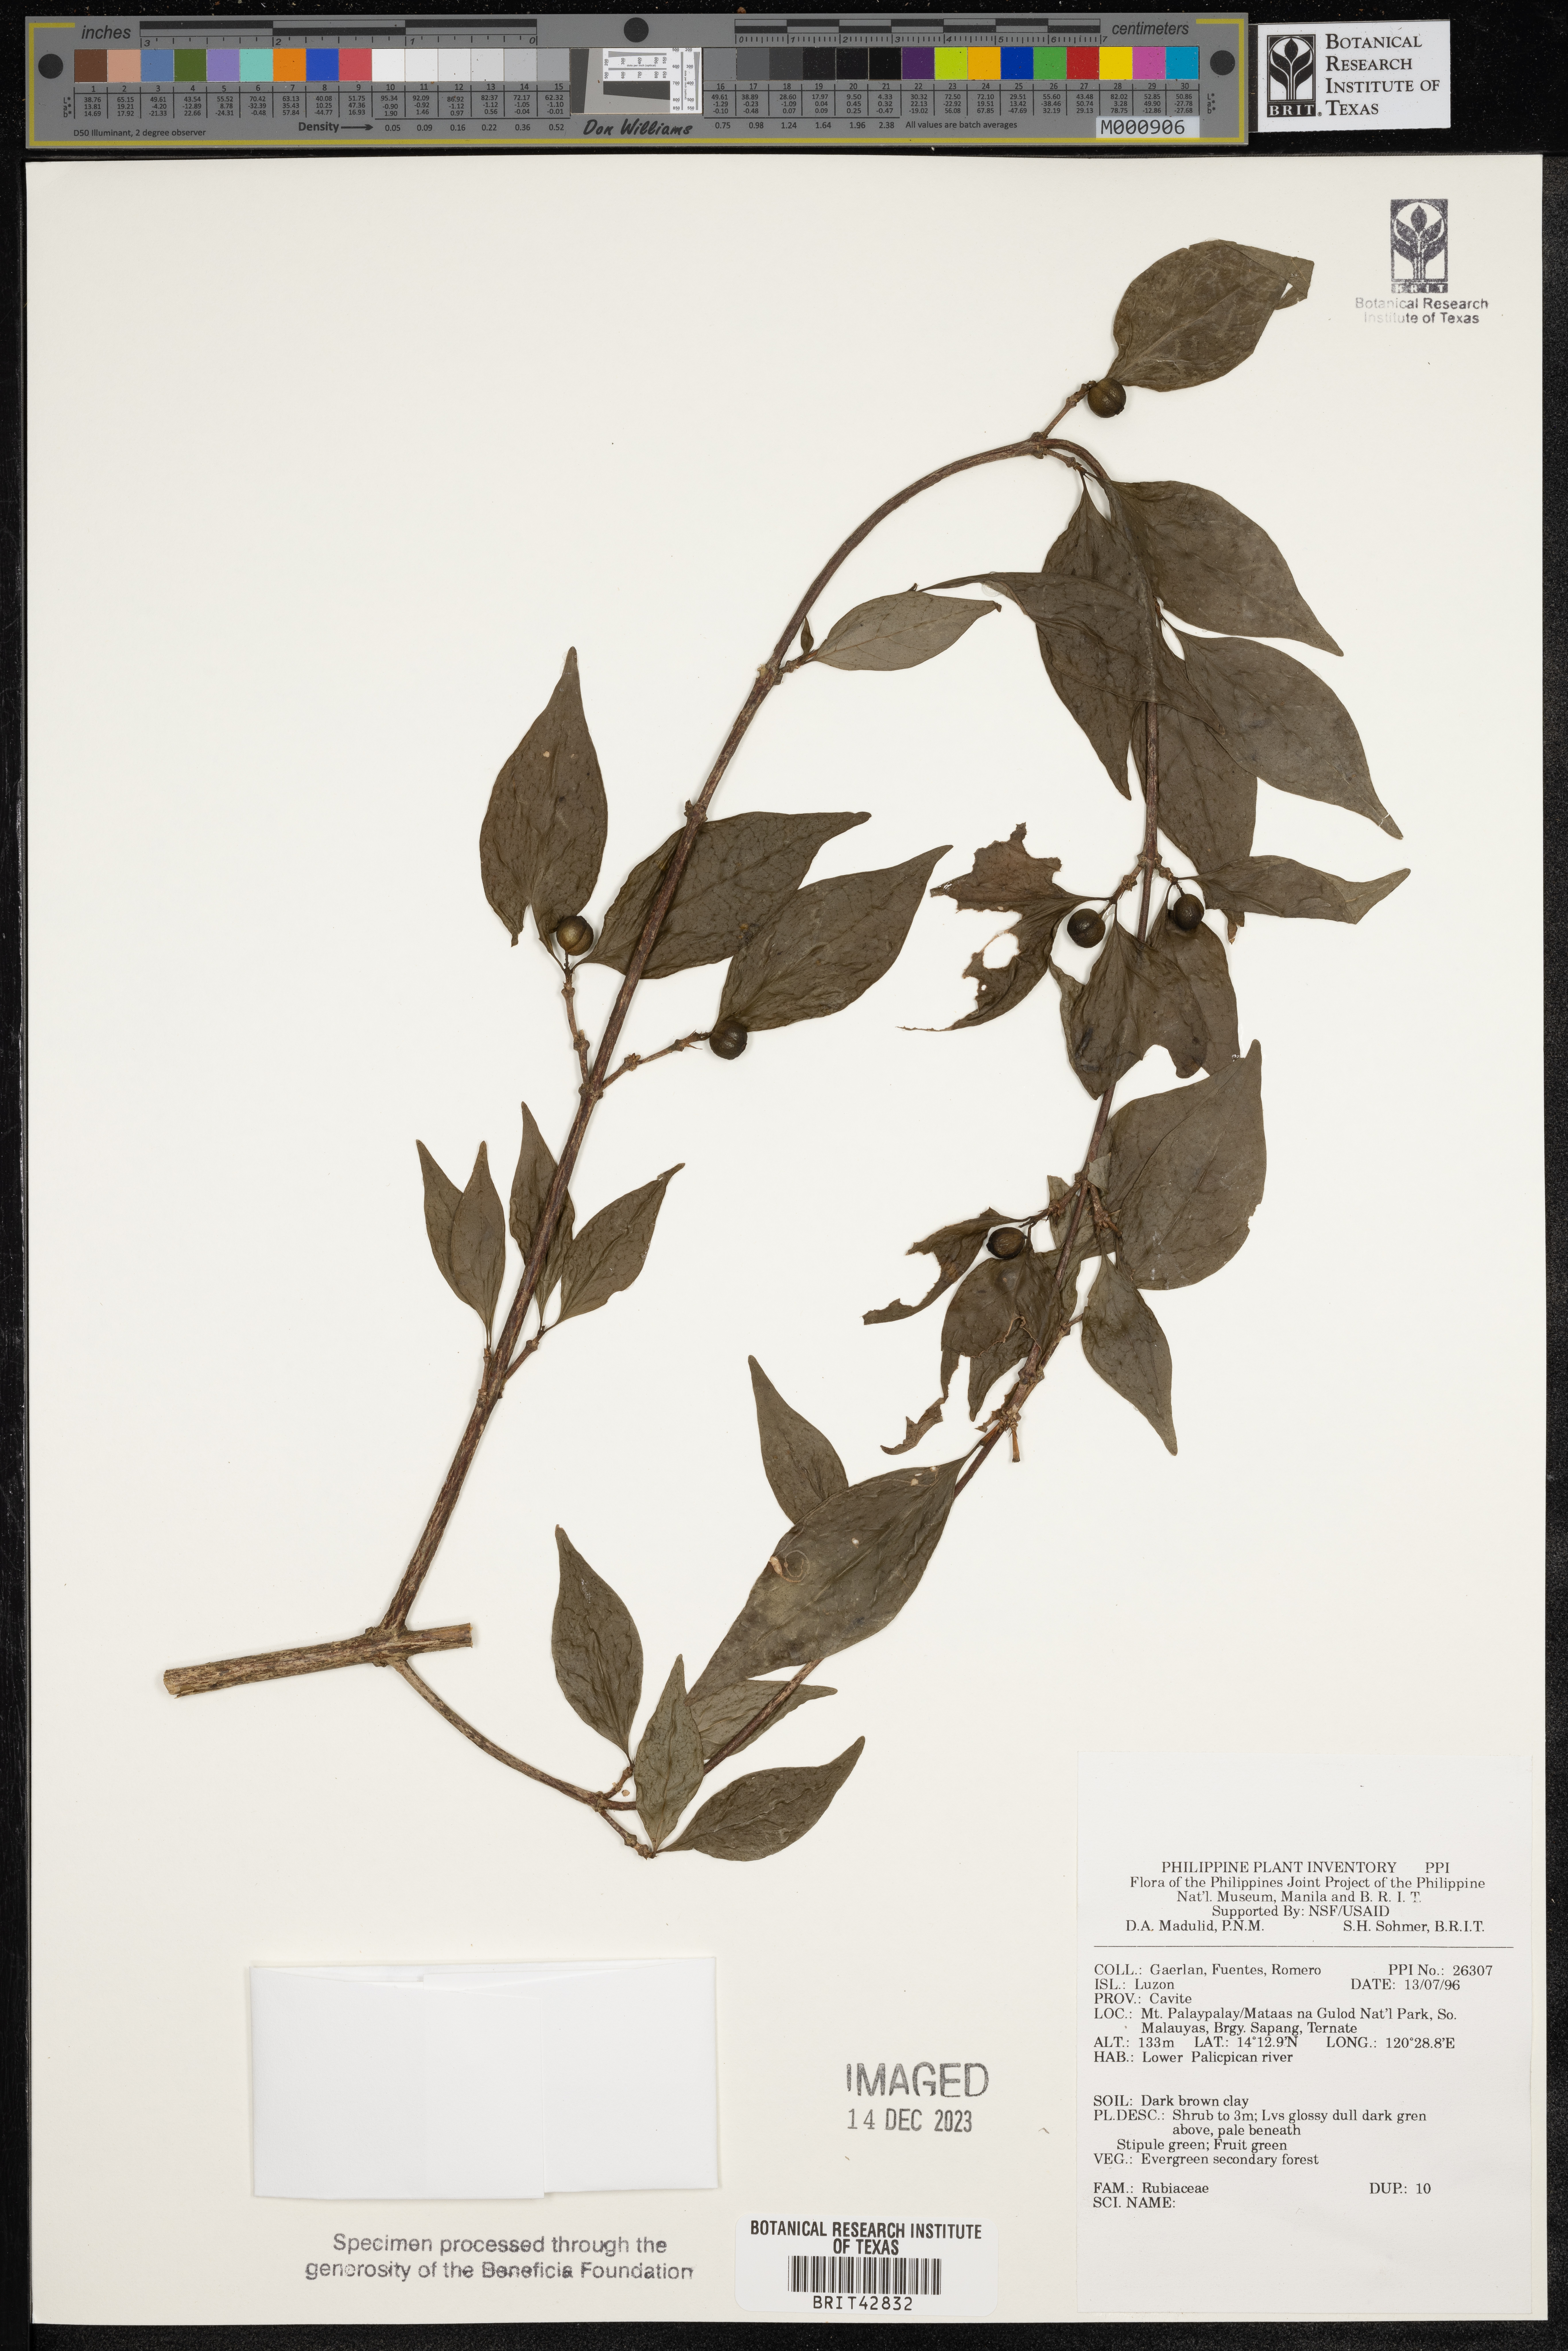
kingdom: Plantae
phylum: Tracheophyta
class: Magnoliopsida
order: Gentianales
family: Rubiaceae
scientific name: Rubiaceae
